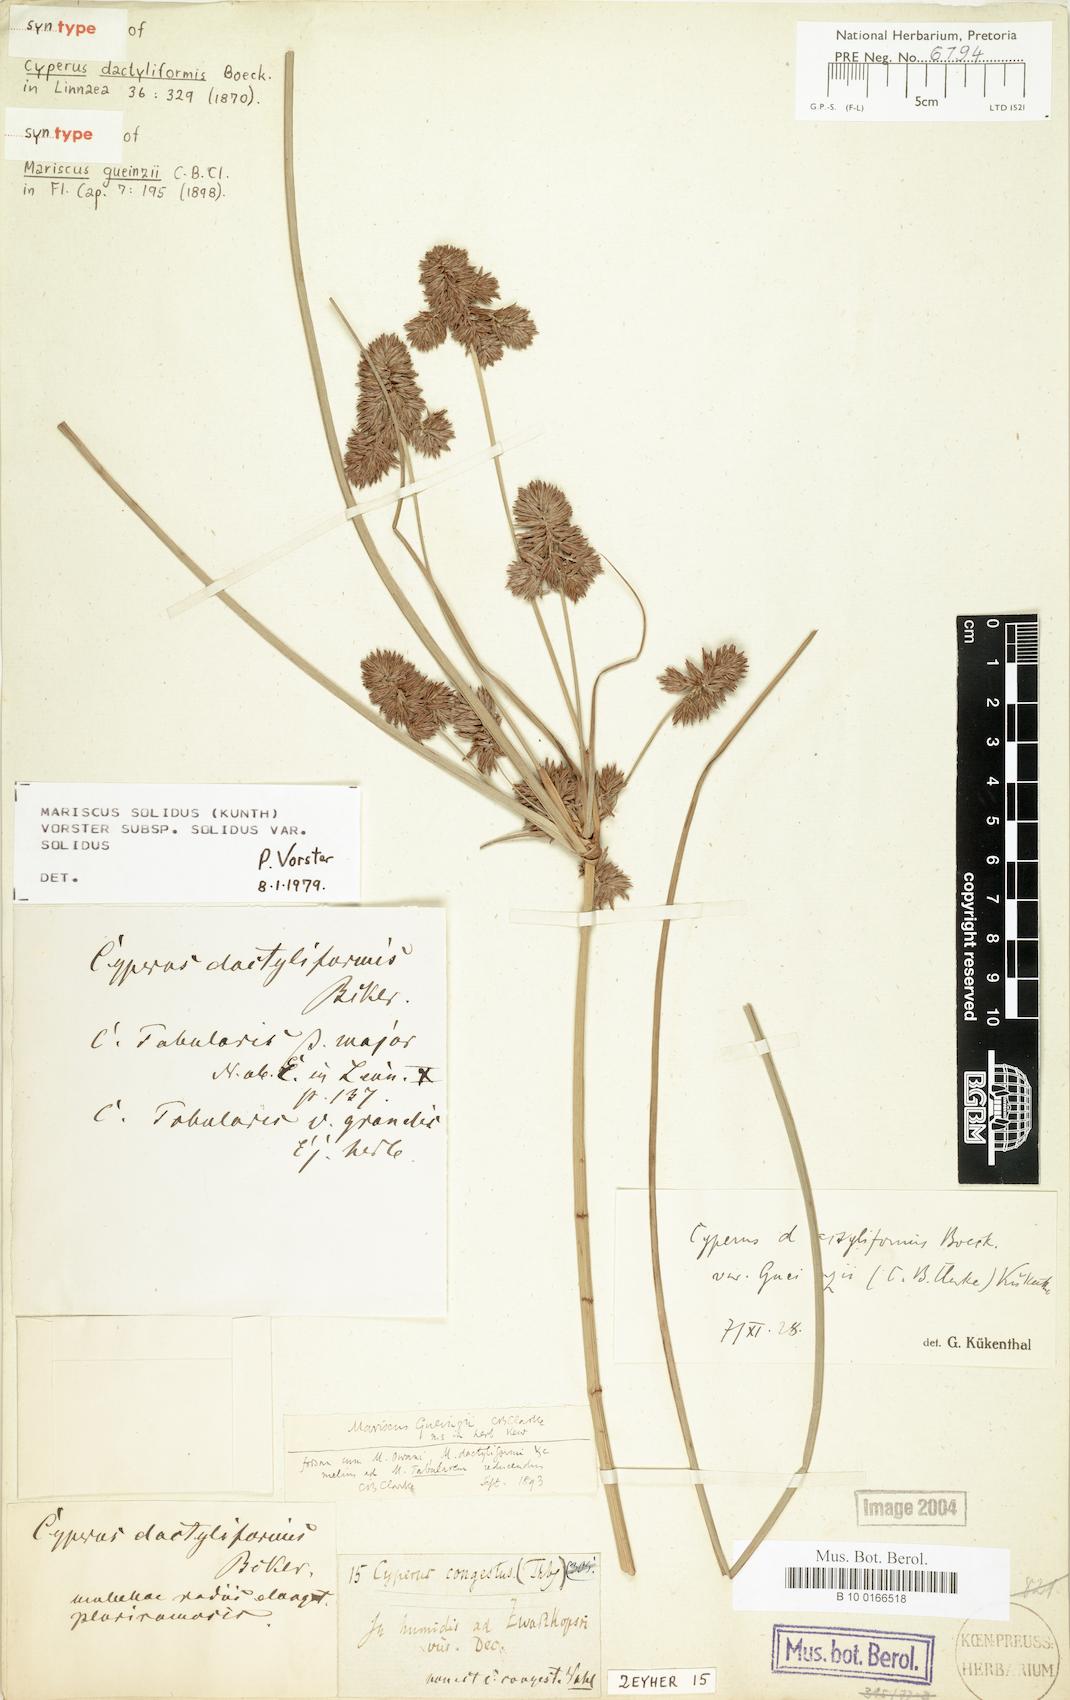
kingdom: Plantae
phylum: Tracheophyta
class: Liliopsida
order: Poales
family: Cyperaceae
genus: Cyperus
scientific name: Cyperus solidus
